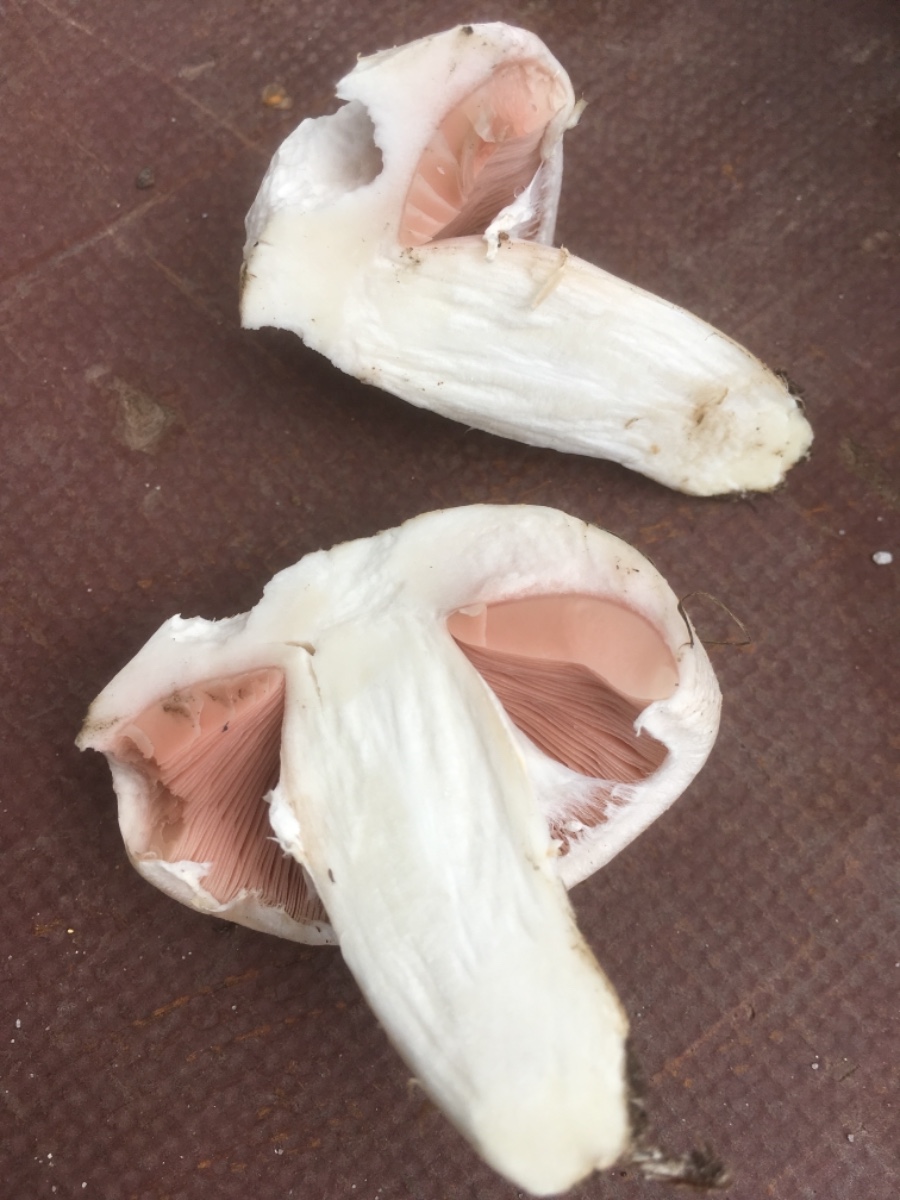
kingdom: Fungi
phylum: Basidiomycota
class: Agaricomycetes
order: Agaricales
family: Agaricaceae
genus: Agaricus
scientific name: Agaricus bitorquis
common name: vej-champignon
